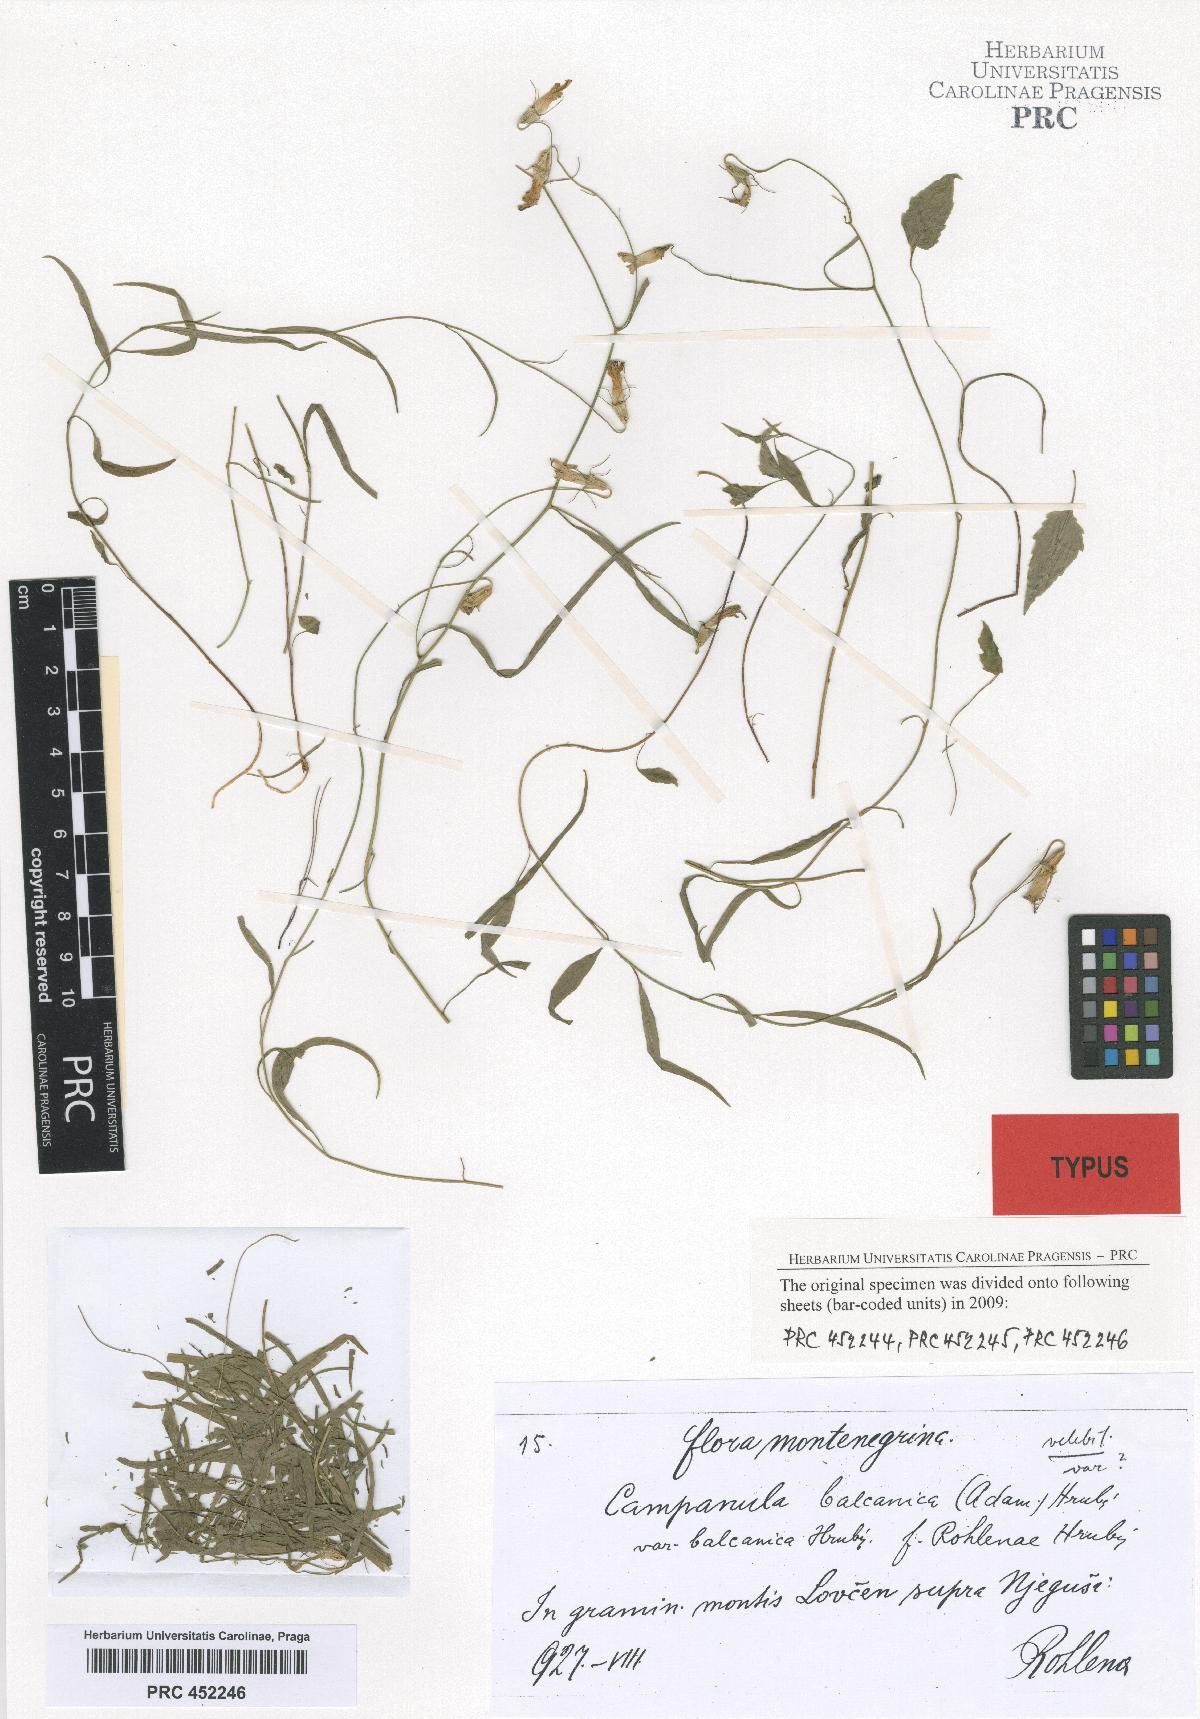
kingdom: Plantae
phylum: Tracheophyta
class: Magnoliopsida
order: Asterales
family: Campanulaceae
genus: Campanula
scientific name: Campanula velebitica
